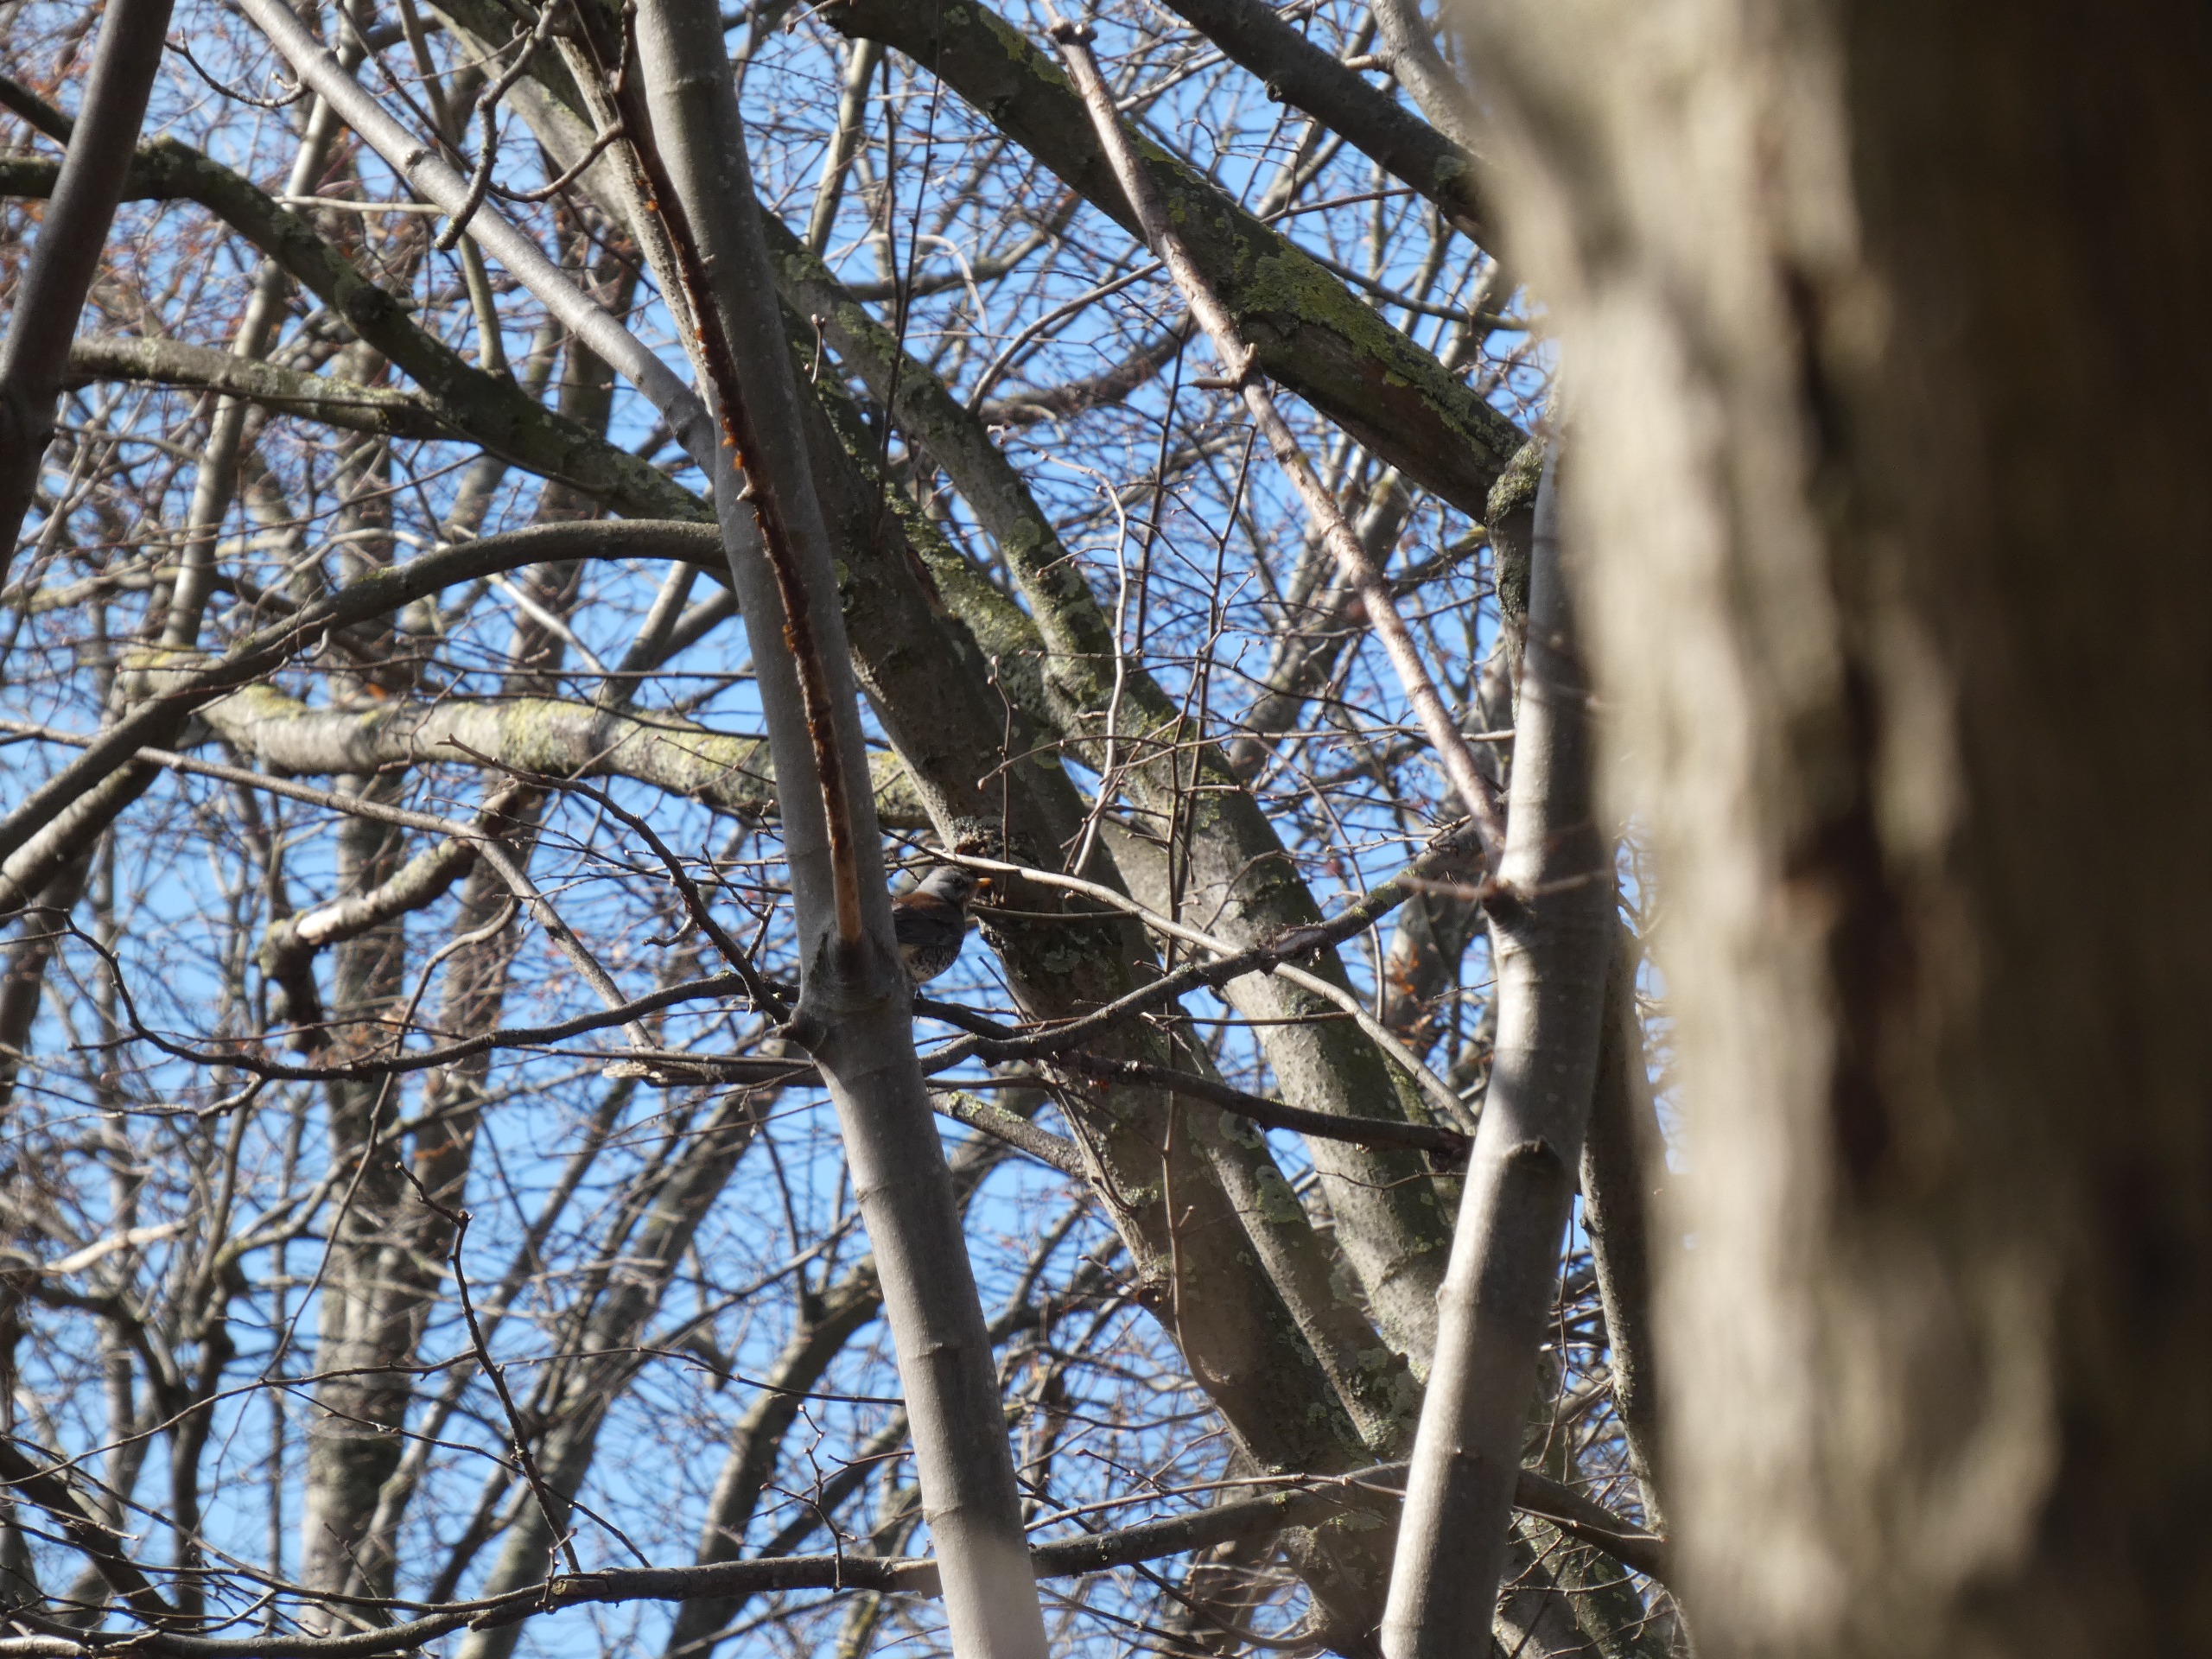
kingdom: Animalia
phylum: Chordata
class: Aves
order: Passeriformes
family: Turdidae
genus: Turdus
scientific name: Turdus pilaris
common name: Sjagger
